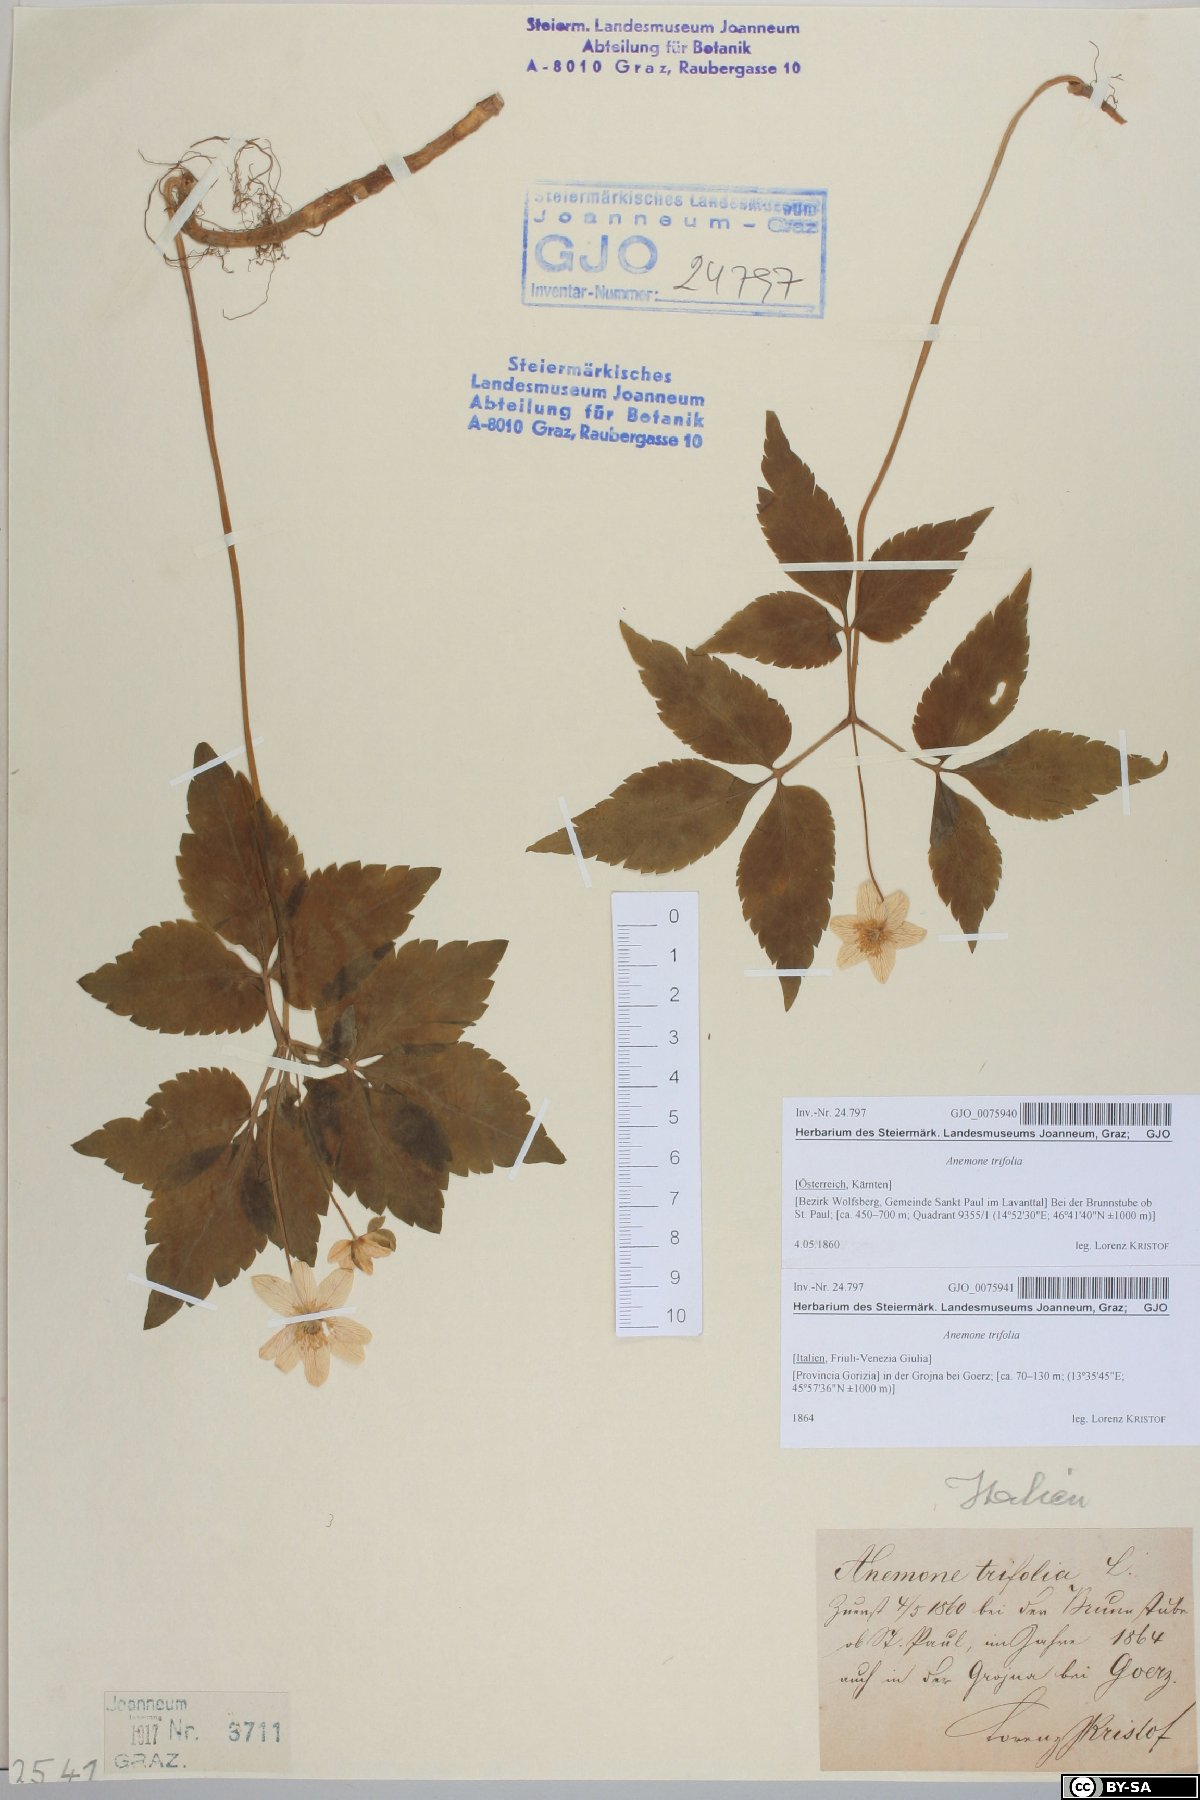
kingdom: Plantae
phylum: Tracheophyta
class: Magnoliopsida
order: Ranunculales
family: Ranunculaceae
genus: Anemone
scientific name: Anemone trifolia
